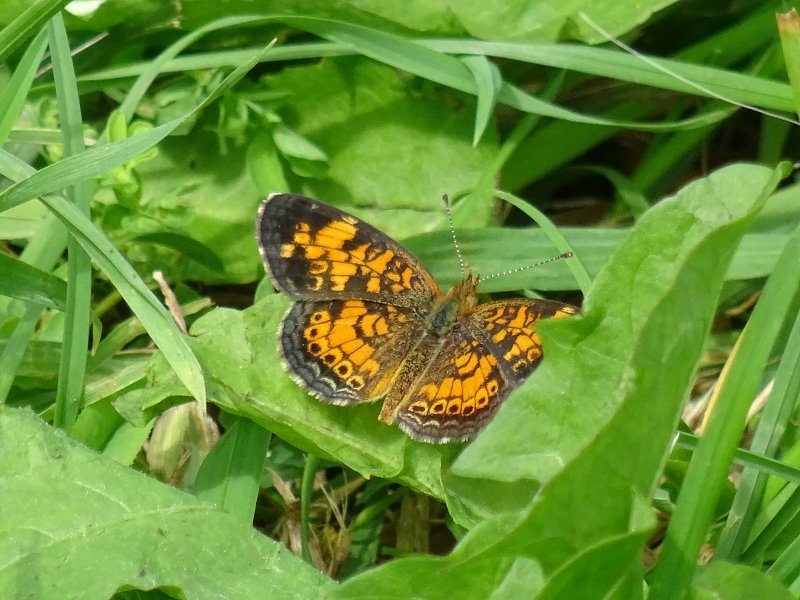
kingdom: Animalia
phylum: Arthropoda
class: Insecta
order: Lepidoptera
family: Nymphalidae
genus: Phyciodes
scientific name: Phyciodes tharos
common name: Pearl Crescent
